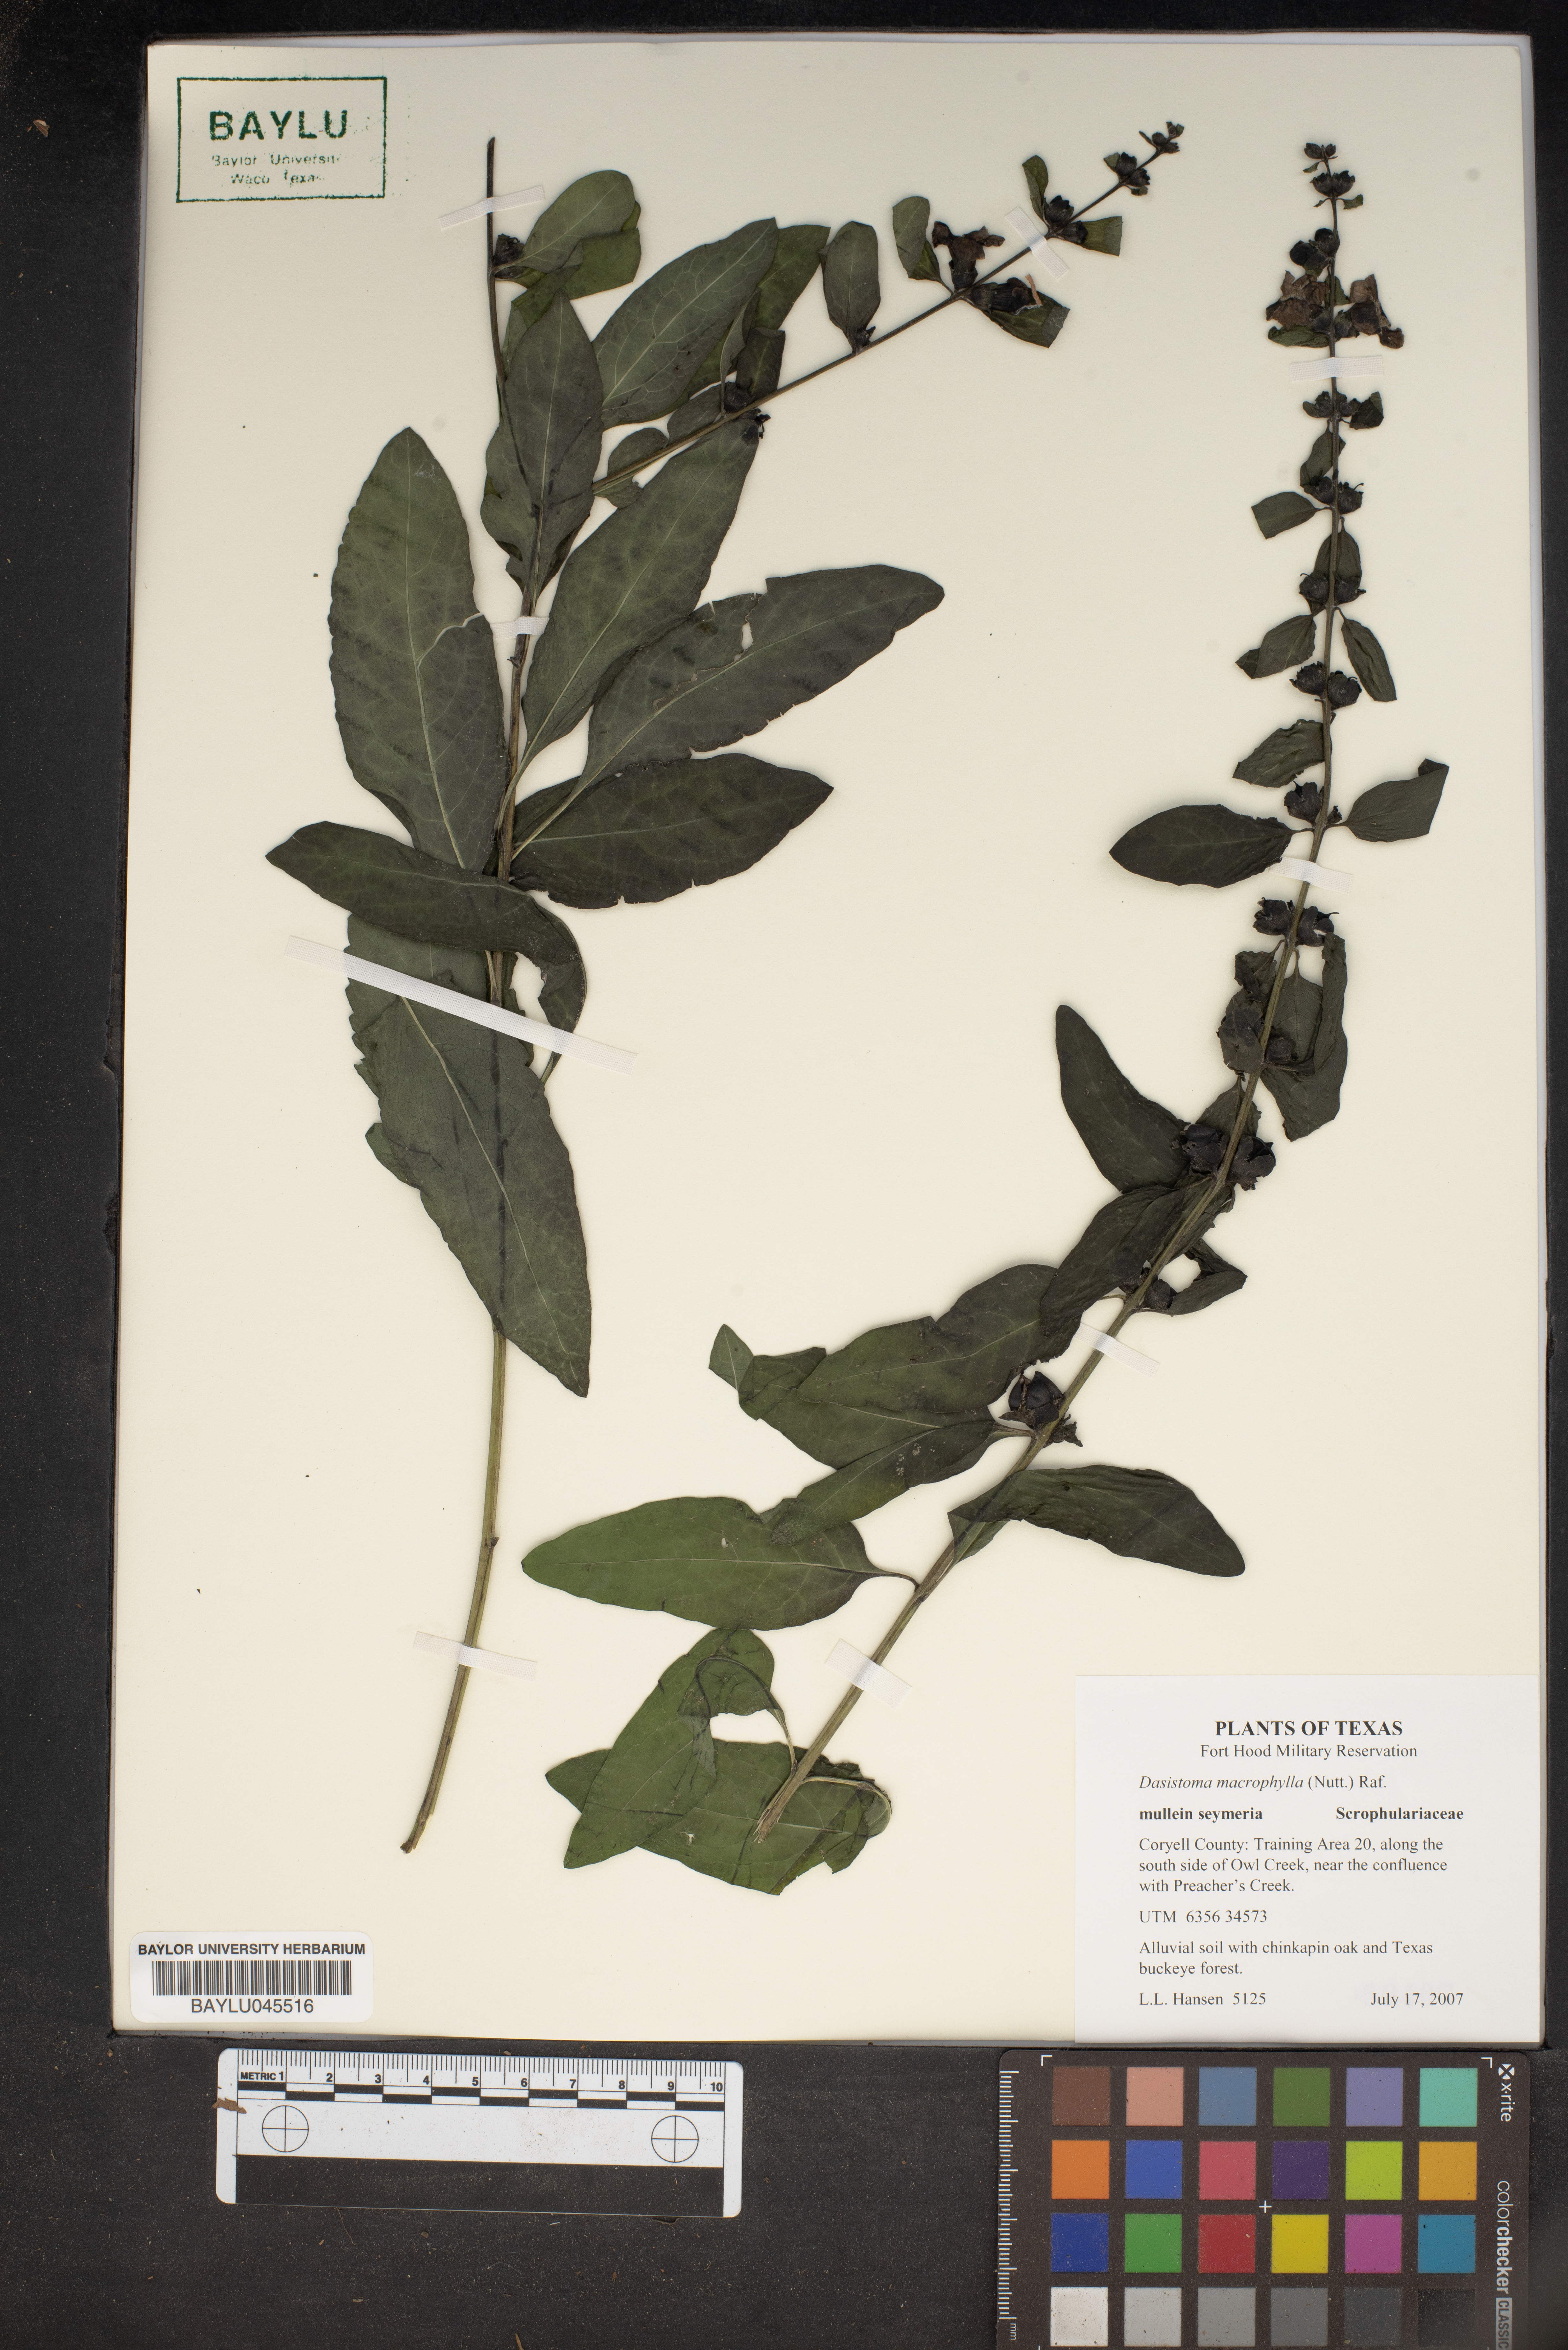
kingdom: Plantae
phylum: Tracheophyta
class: Magnoliopsida
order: Lamiales
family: Orobanchaceae
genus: Dasistoma
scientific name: Dasistoma macrophyllum
